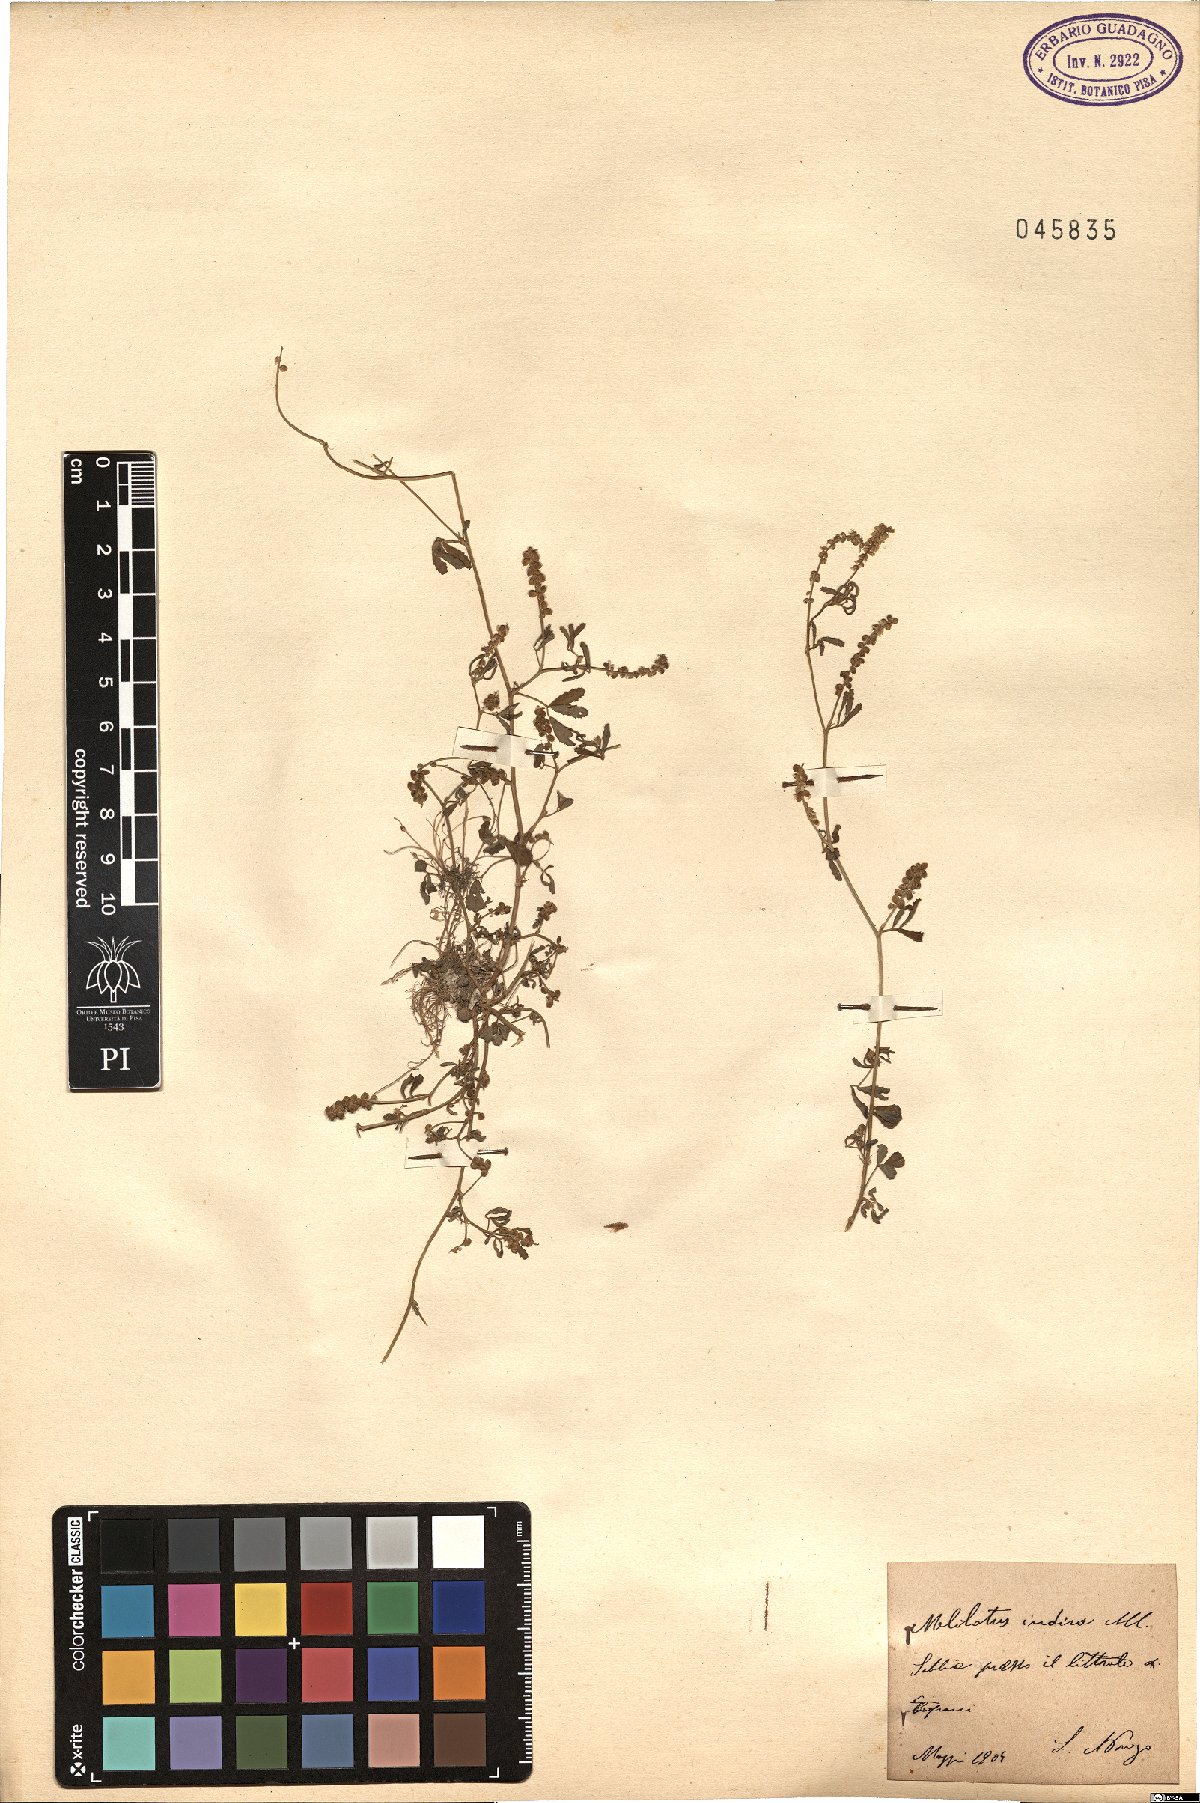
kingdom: Plantae
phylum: Tracheophyta
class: Magnoliopsida
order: Fabales
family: Fabaceae
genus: Melilotus
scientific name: Melilotus indicus
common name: Small melilot
